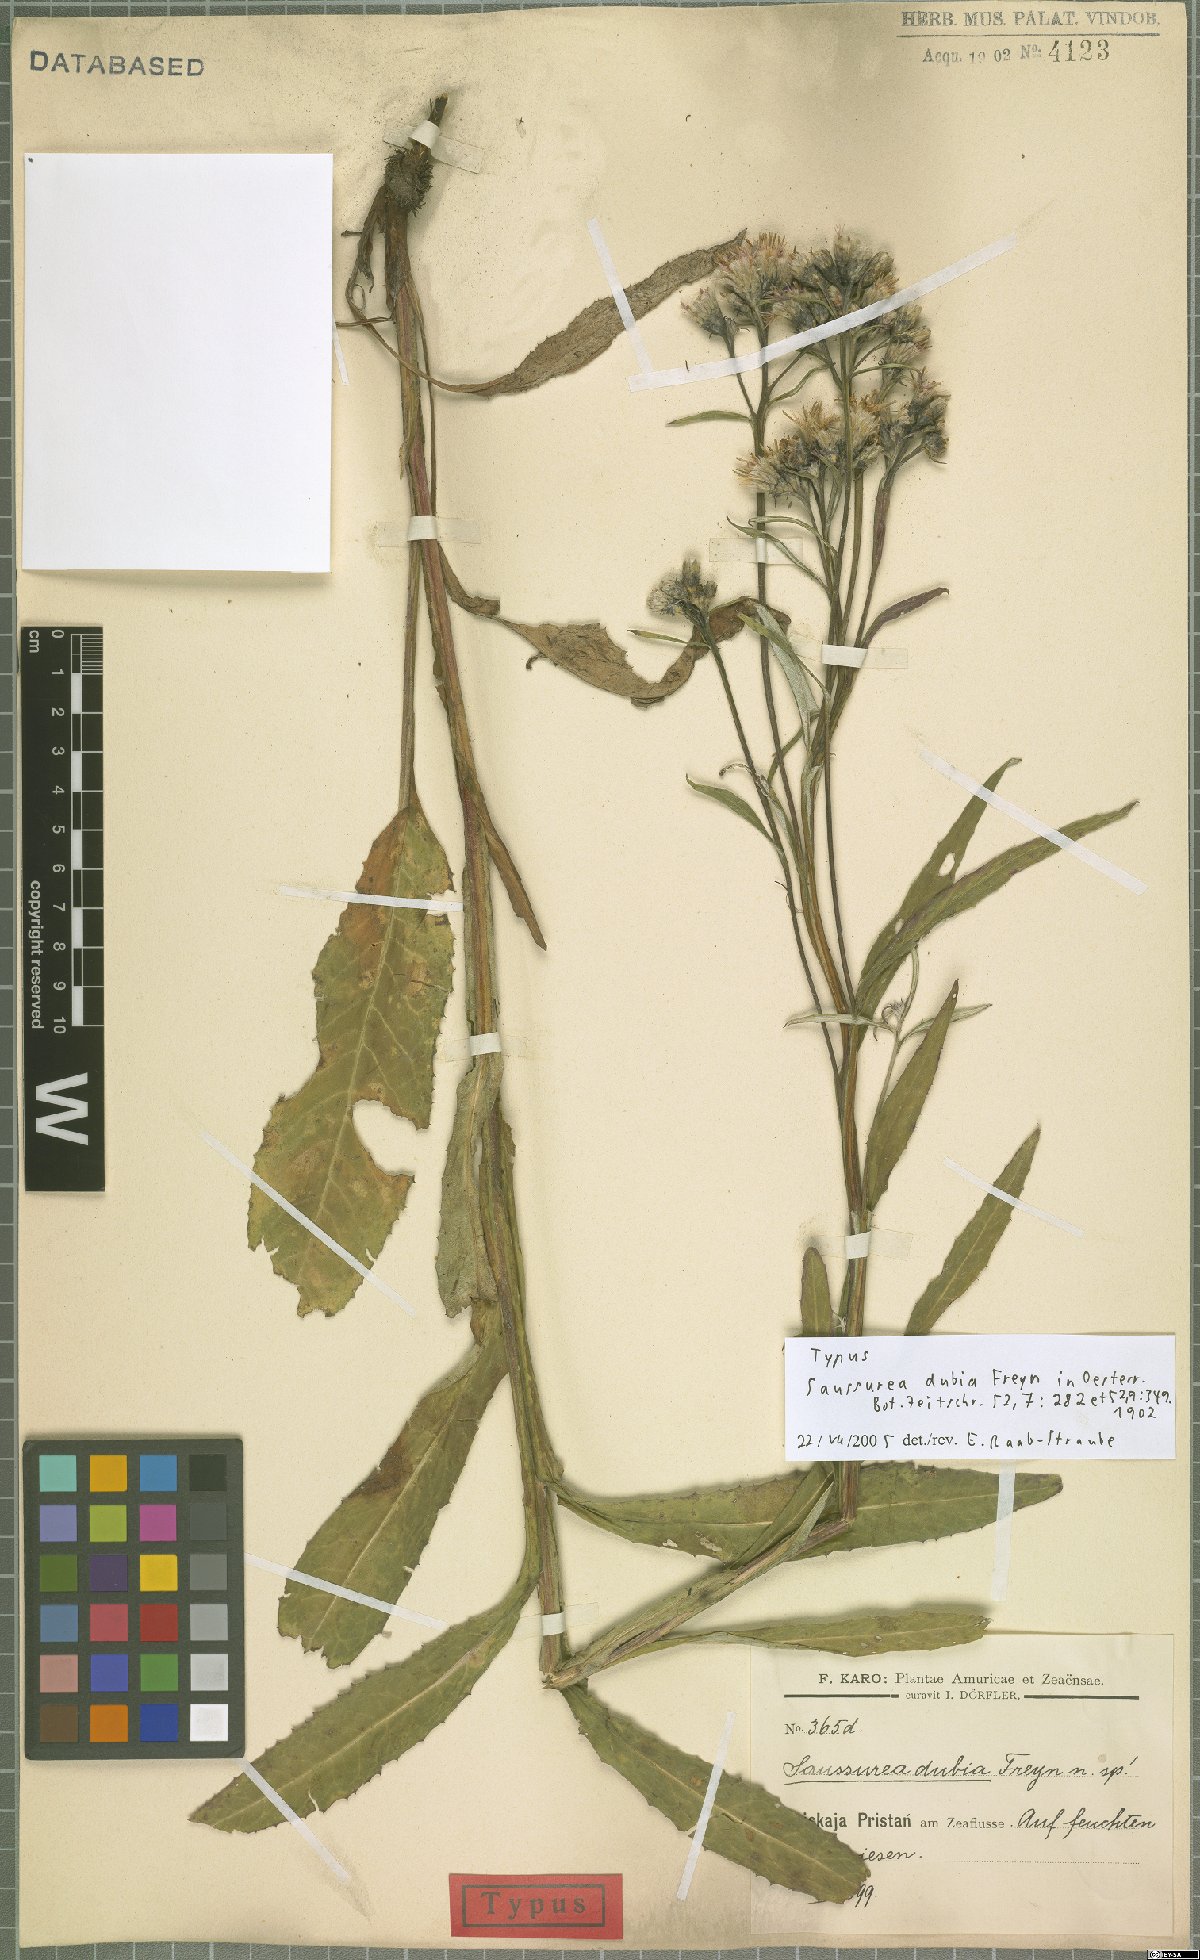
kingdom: Plantae
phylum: Tracheophyta
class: Magnoliopsida
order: Asterales
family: Asteraceae
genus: Saussurea
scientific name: Saussurea dubia
